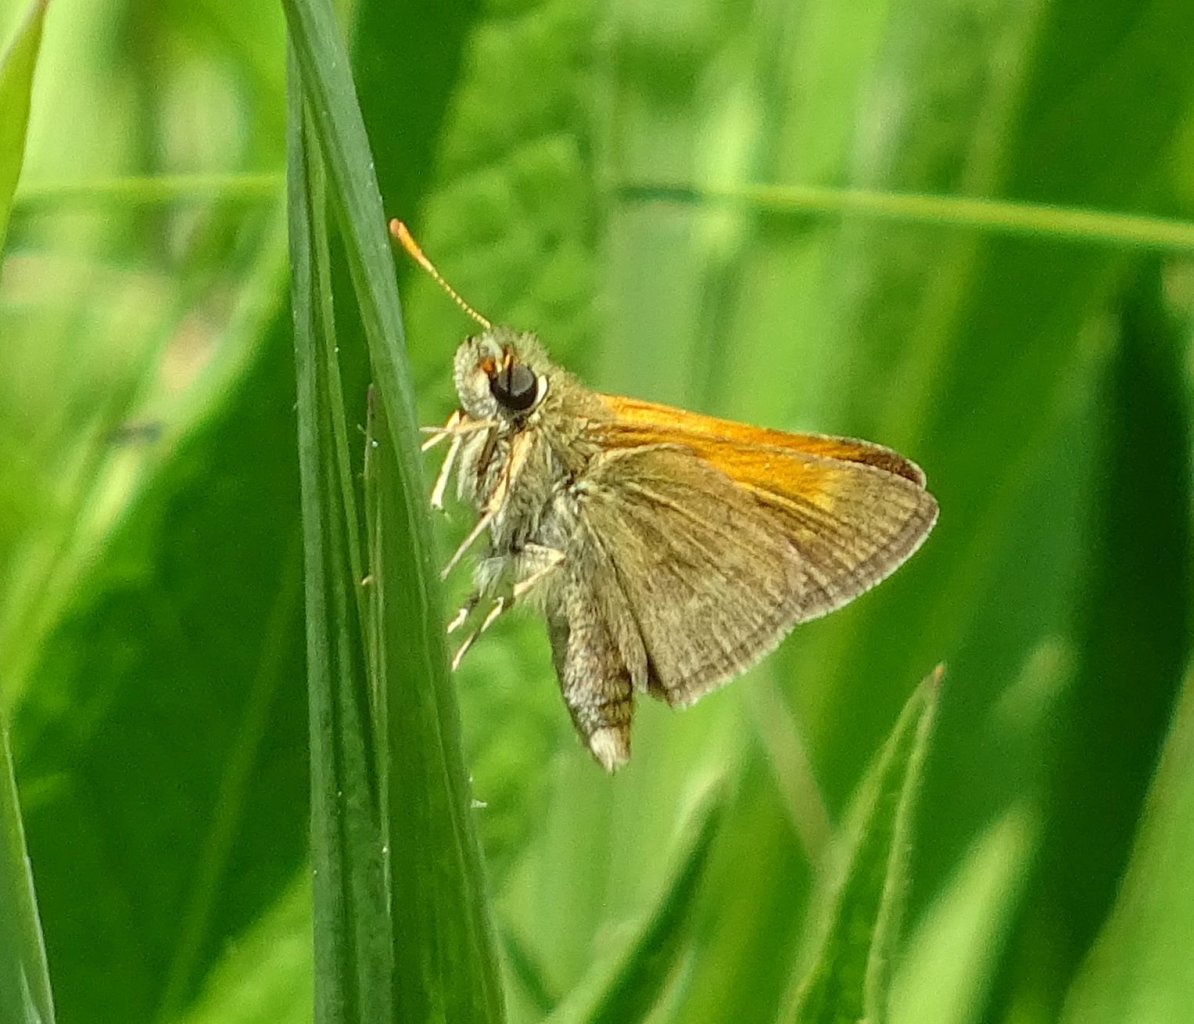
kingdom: Animalia
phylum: Arthropoda
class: Insecta
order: Lepidoptera
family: Hesperiidae
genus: Polites
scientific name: Polites themistocles
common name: Tawny-edged Skipper
